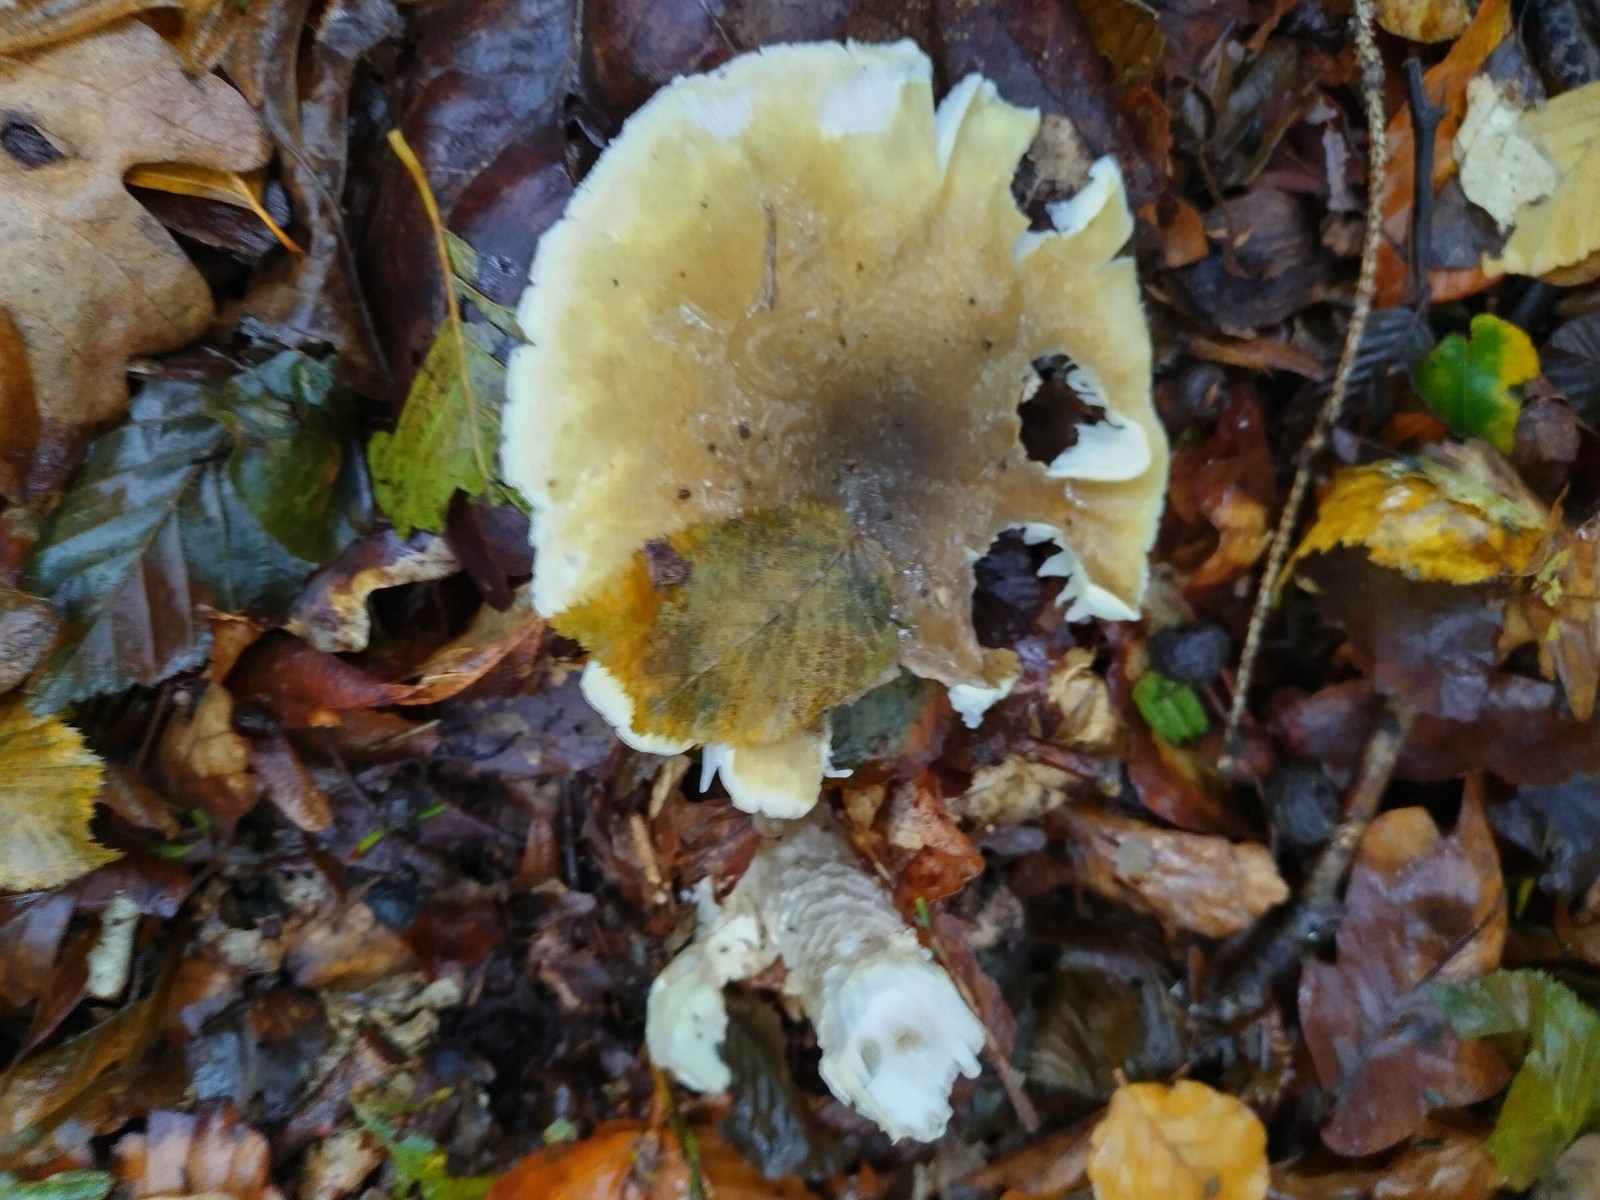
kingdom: Fungi
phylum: Basidiomycota
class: Agaricomycetes
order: Agaricales
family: Amanitaceae
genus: Amanita
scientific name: Amanita phalloides
